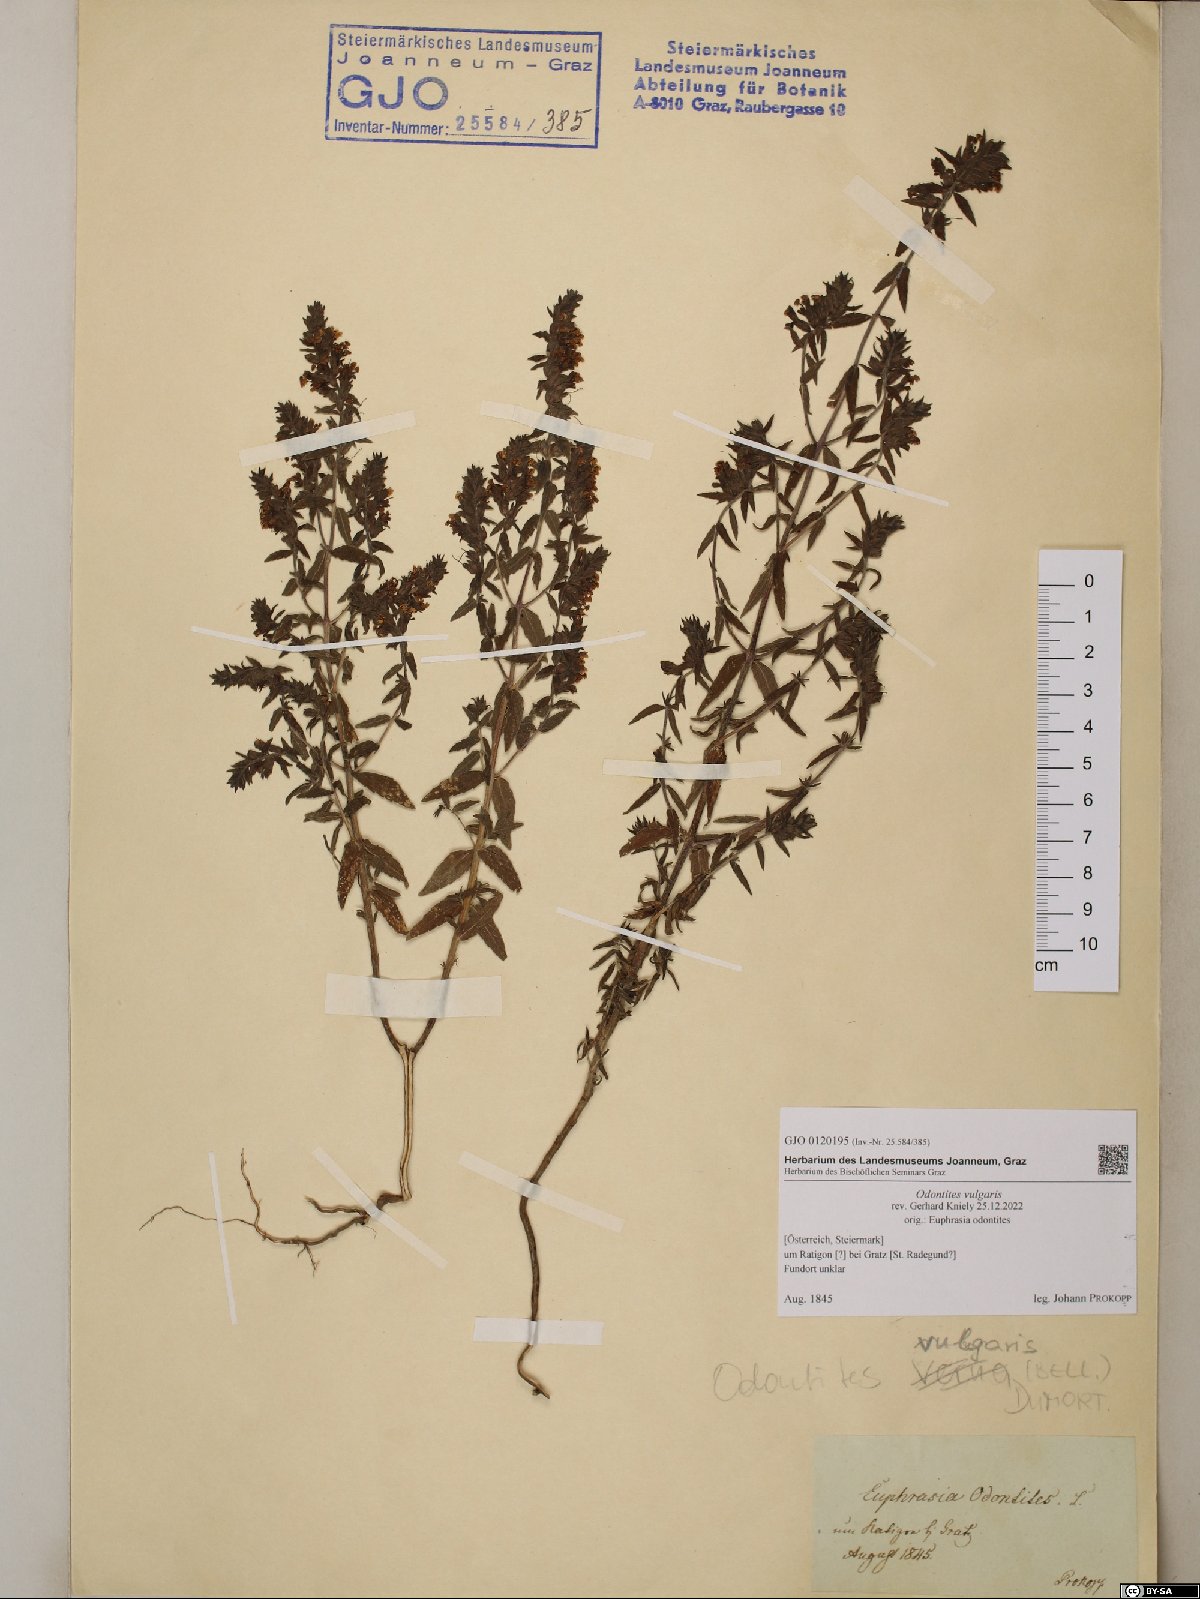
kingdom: Plantae
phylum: Tracheophyta
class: Magnoliopsida
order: Lamiales
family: Orobanchaceae
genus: Odontites
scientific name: Odontites vulgaris
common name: Broomrape
